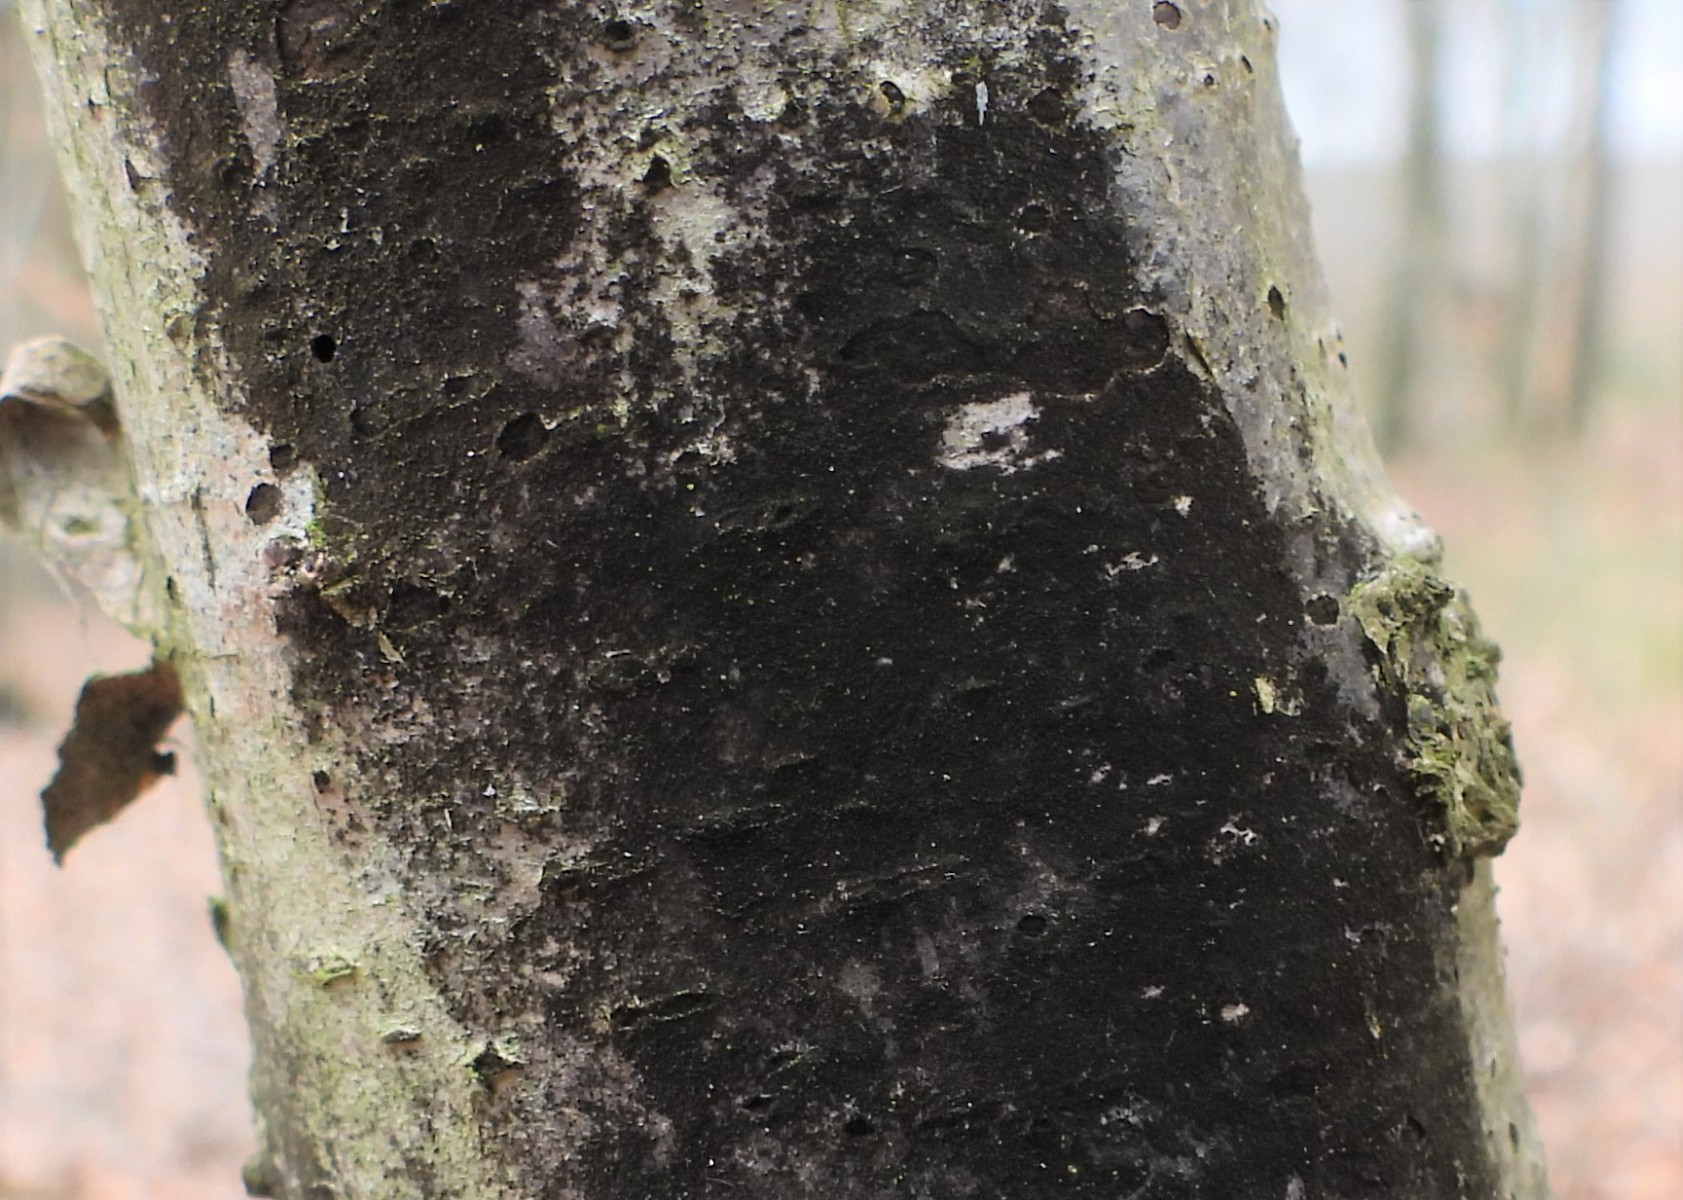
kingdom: Fungi
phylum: Ascomycota
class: Dothideomycetes
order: Mytilinidiales
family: Mytilinidiaceae
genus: Taeniolella
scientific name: Taeniolella stilbospora
